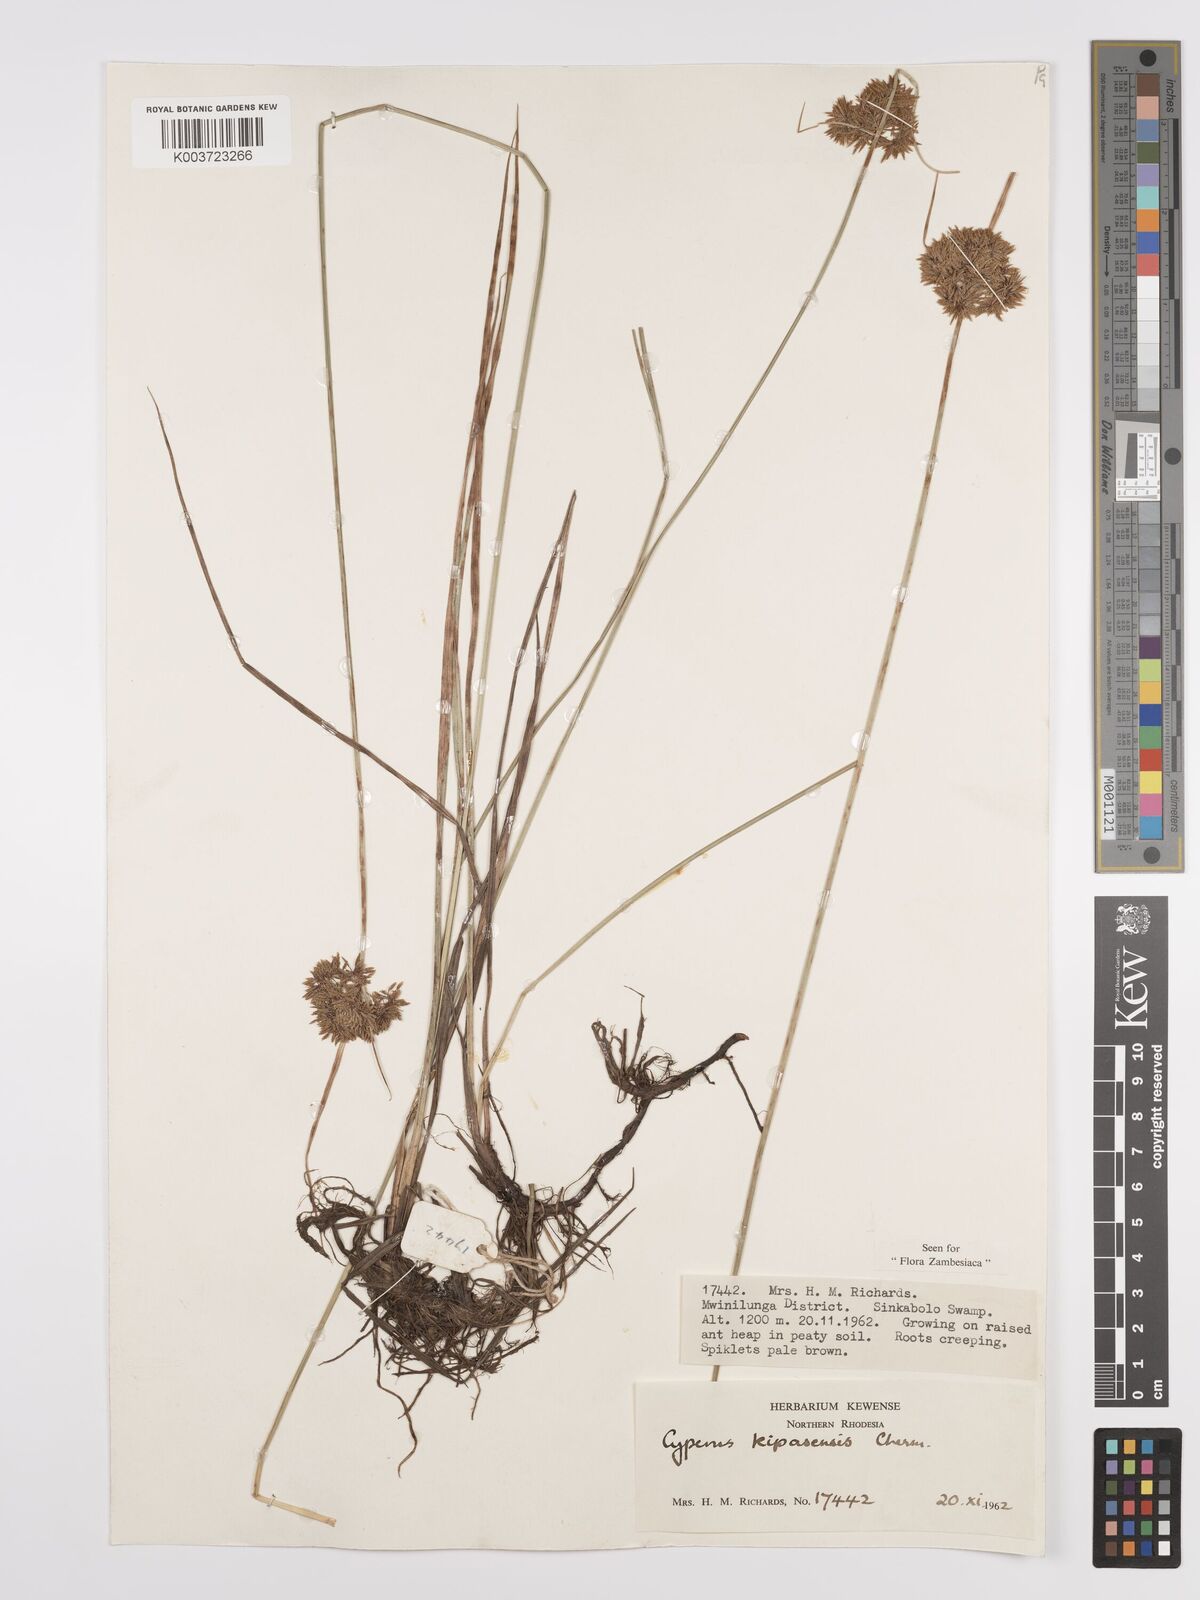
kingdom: Plantae
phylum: Tracheophyta
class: Liliopsida
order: Poales
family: Cyperaceae
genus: Cyperus
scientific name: Cyperus kipasensis
